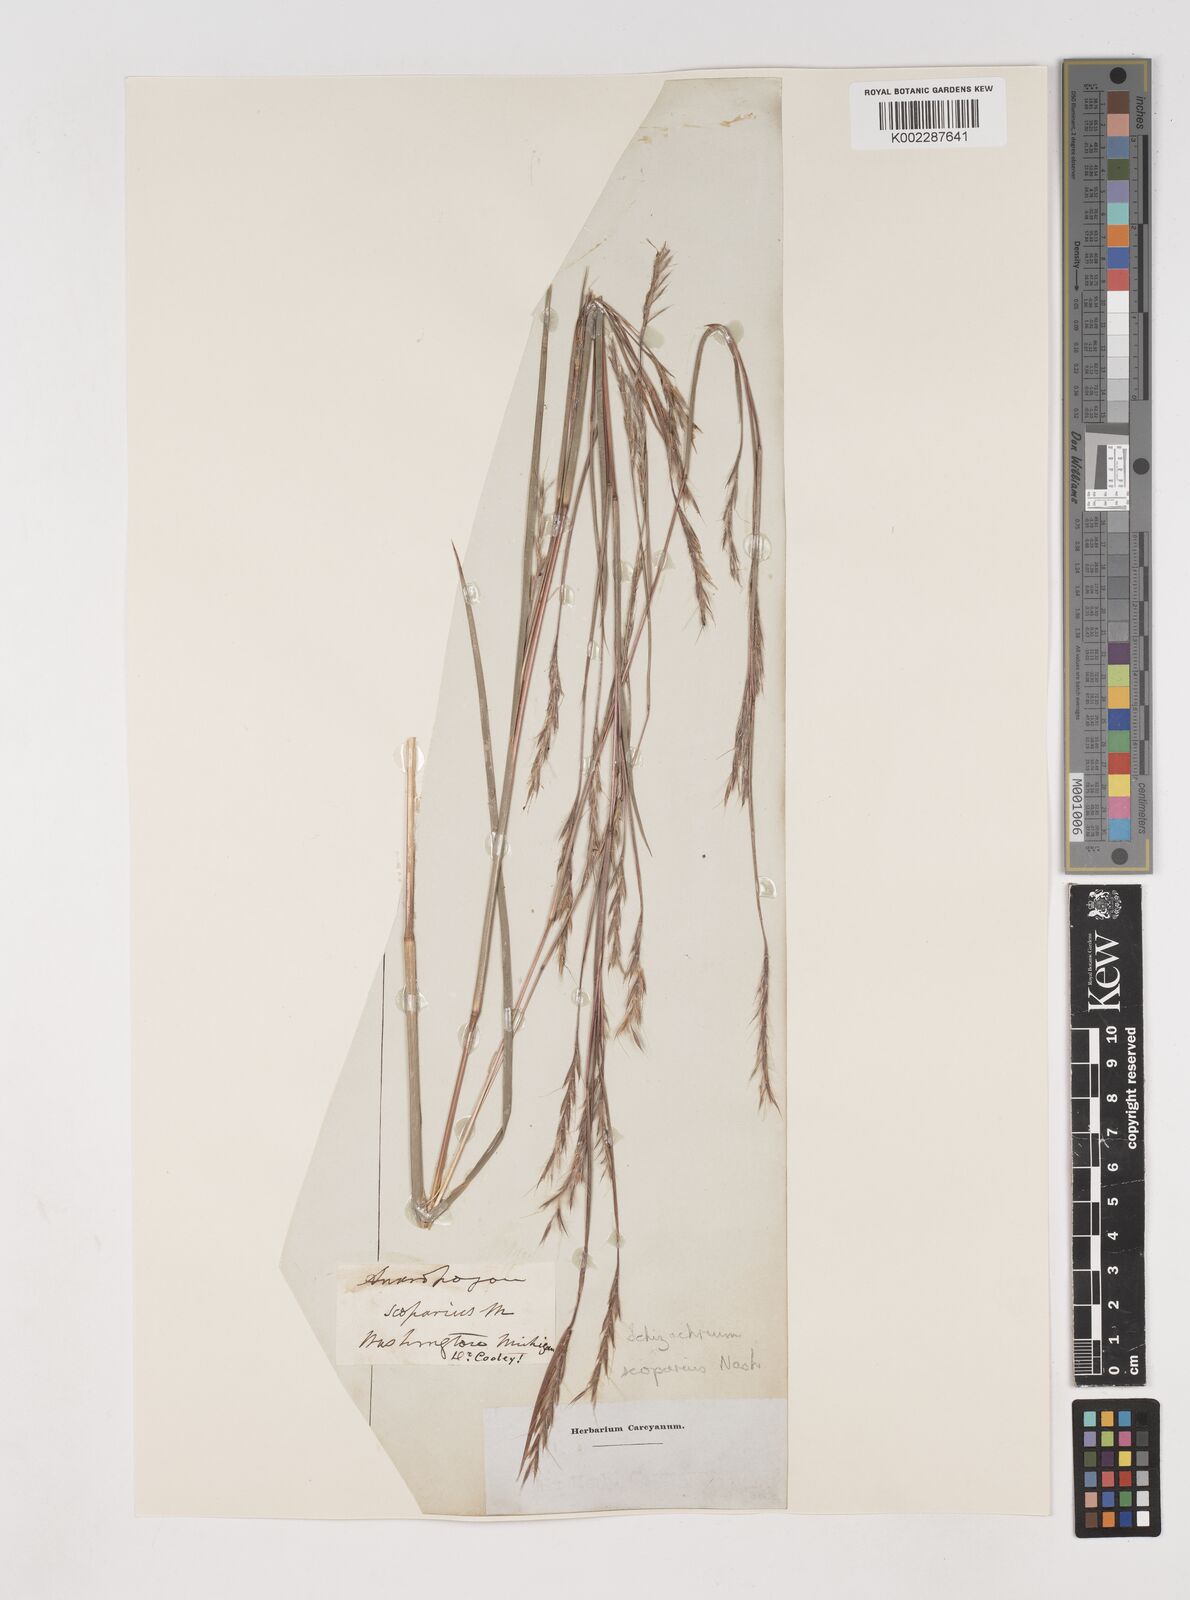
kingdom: Plantae
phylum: Tracheophyta
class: Liliopsida
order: Poales
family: Poaceae
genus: Schizachyrium
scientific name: Schizachyrium scoparium
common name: Little bluestem
